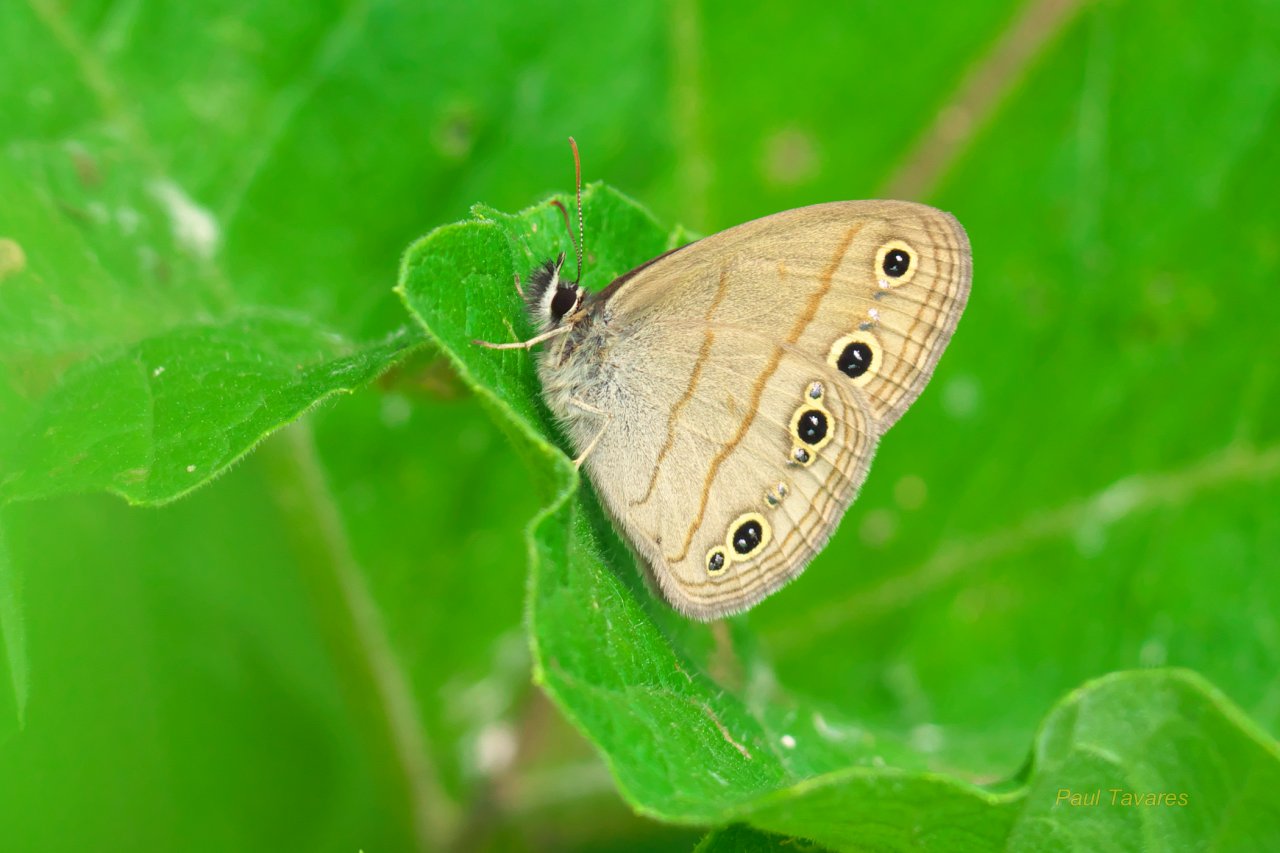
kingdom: Animalia
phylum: Arthropoda
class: Insecta
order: Lepidoptera
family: Nymphalidae
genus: Euptychia
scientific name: Euptychia cymela
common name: Little Wood Satyr
